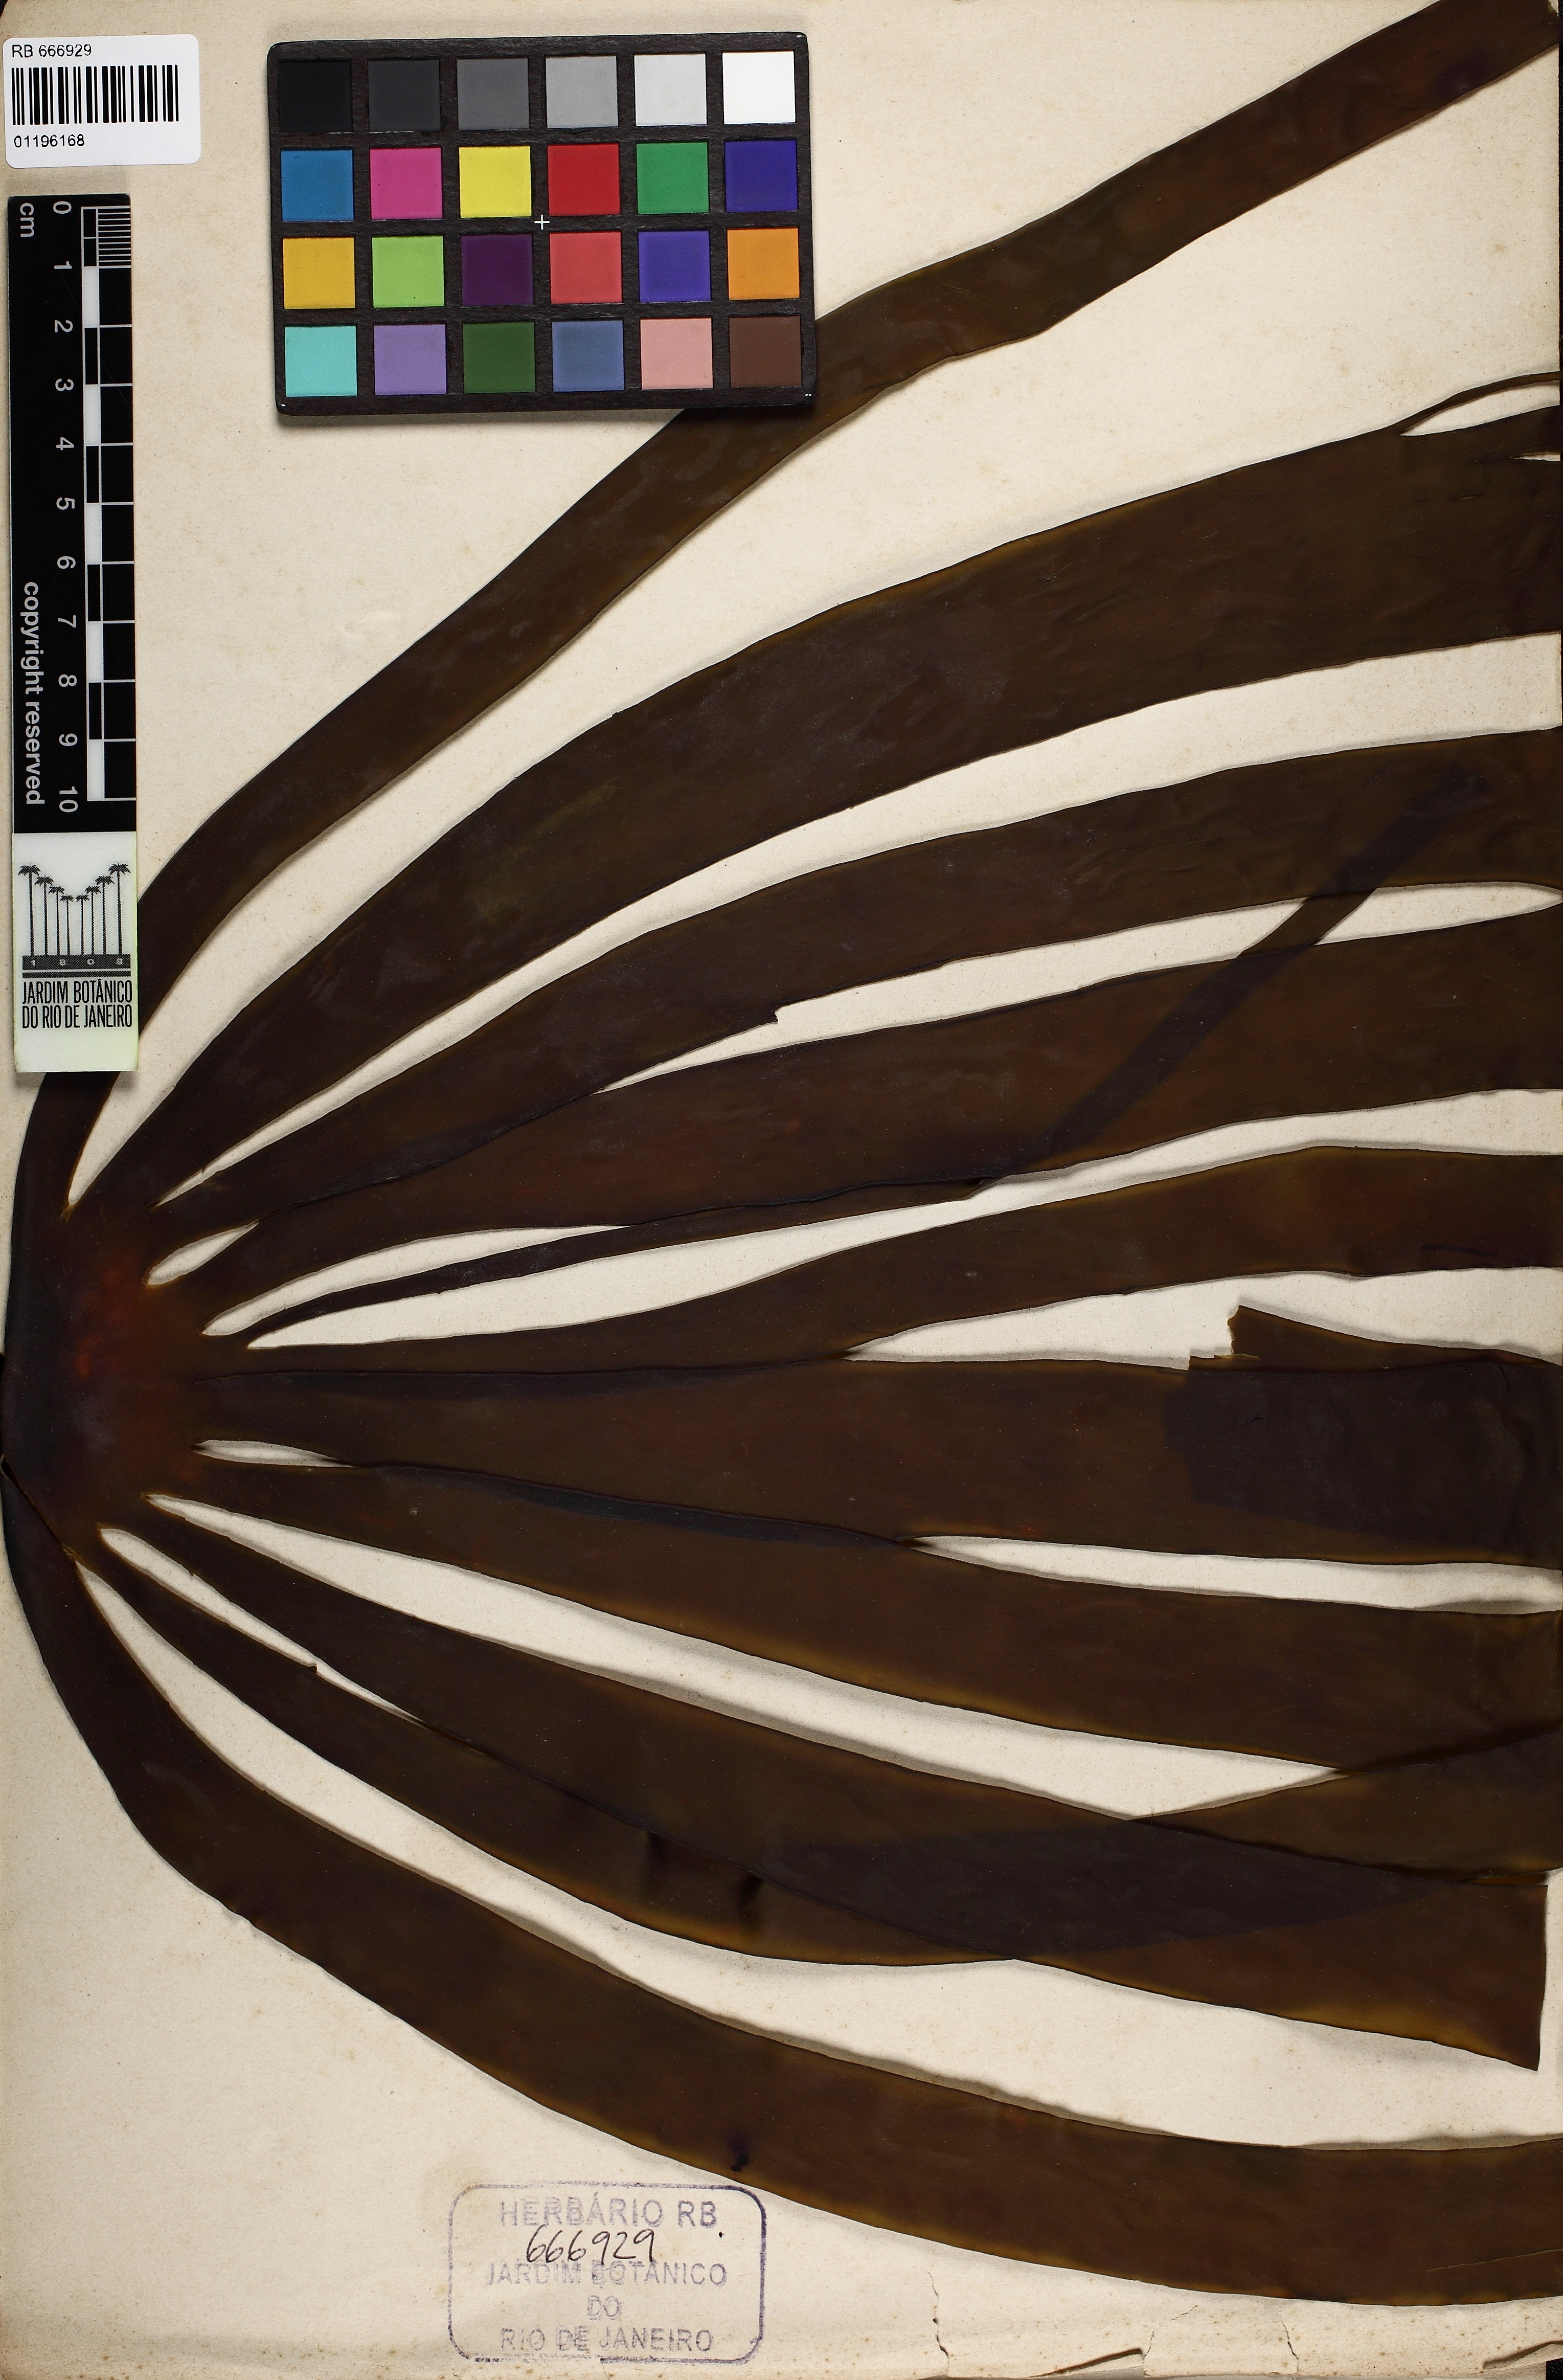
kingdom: Chromista
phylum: Ochrophyta
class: Phaeophyceae
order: Laminariales
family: Laminariaceae
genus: Laminaria
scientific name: Laminaria hyperborea
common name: Cuvie
